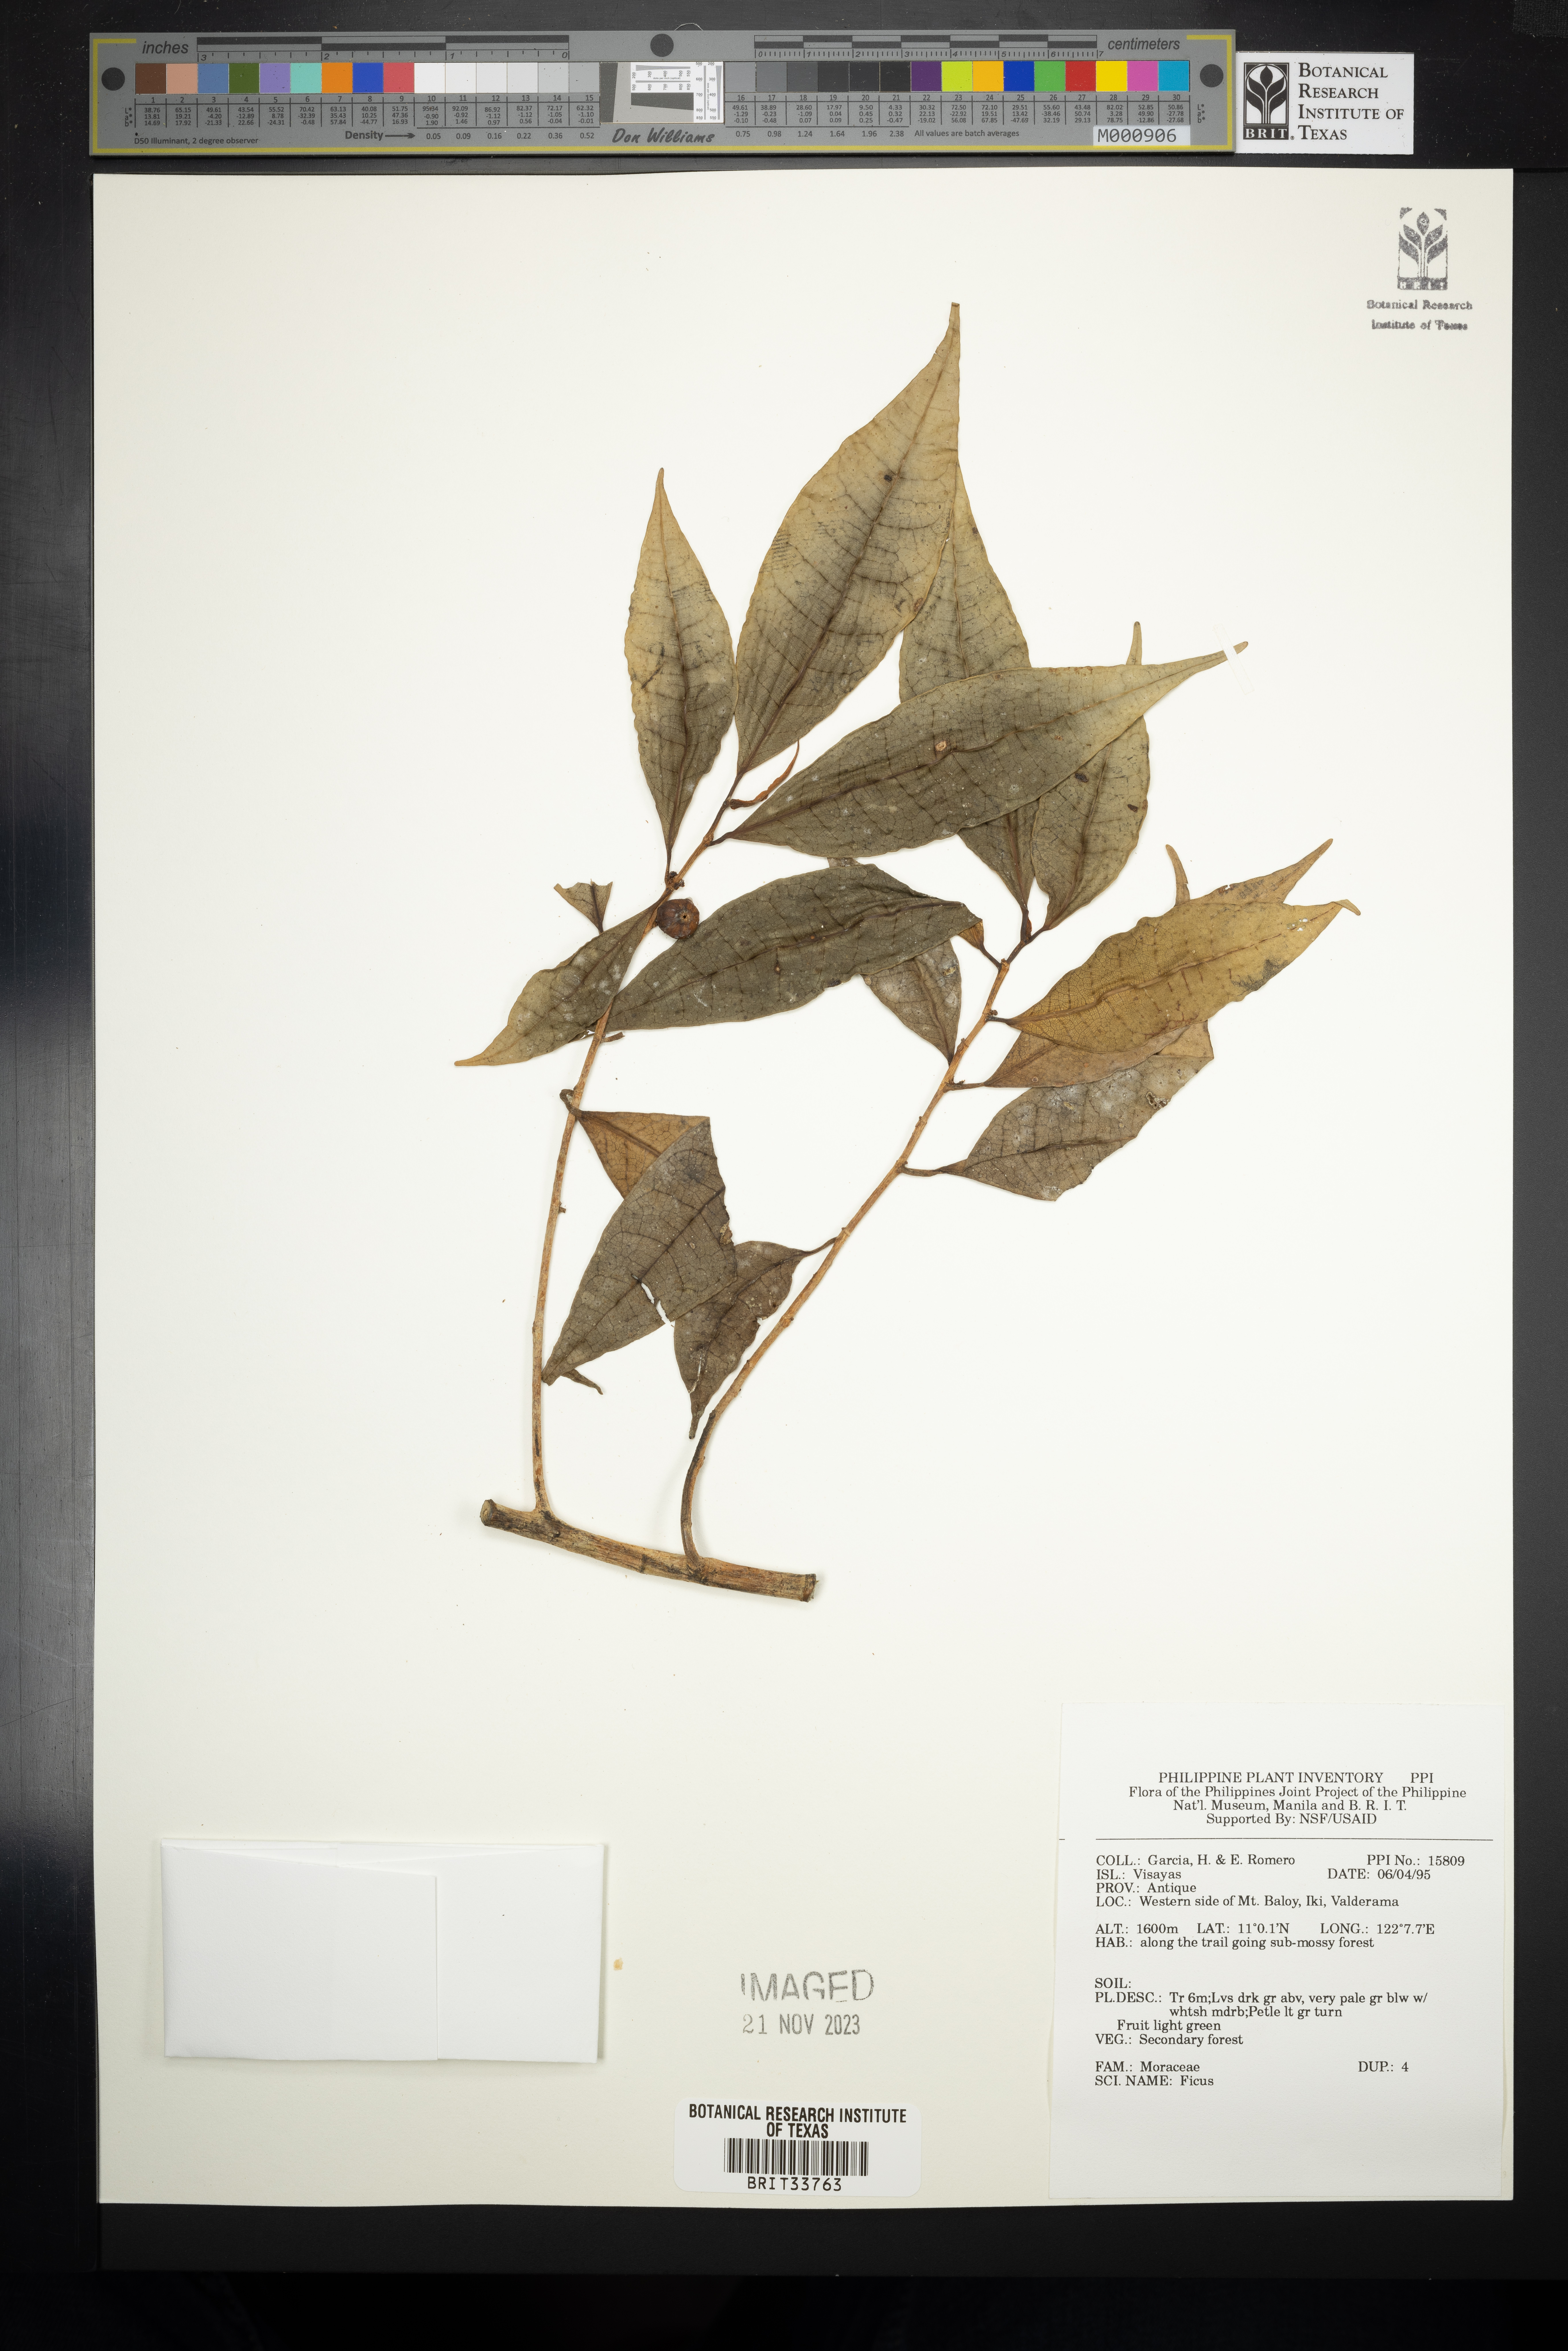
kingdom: Plantae
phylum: Tracheophyta
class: Magnoliopsida
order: Rosales
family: Moraceae
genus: Ficus
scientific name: Ficus
